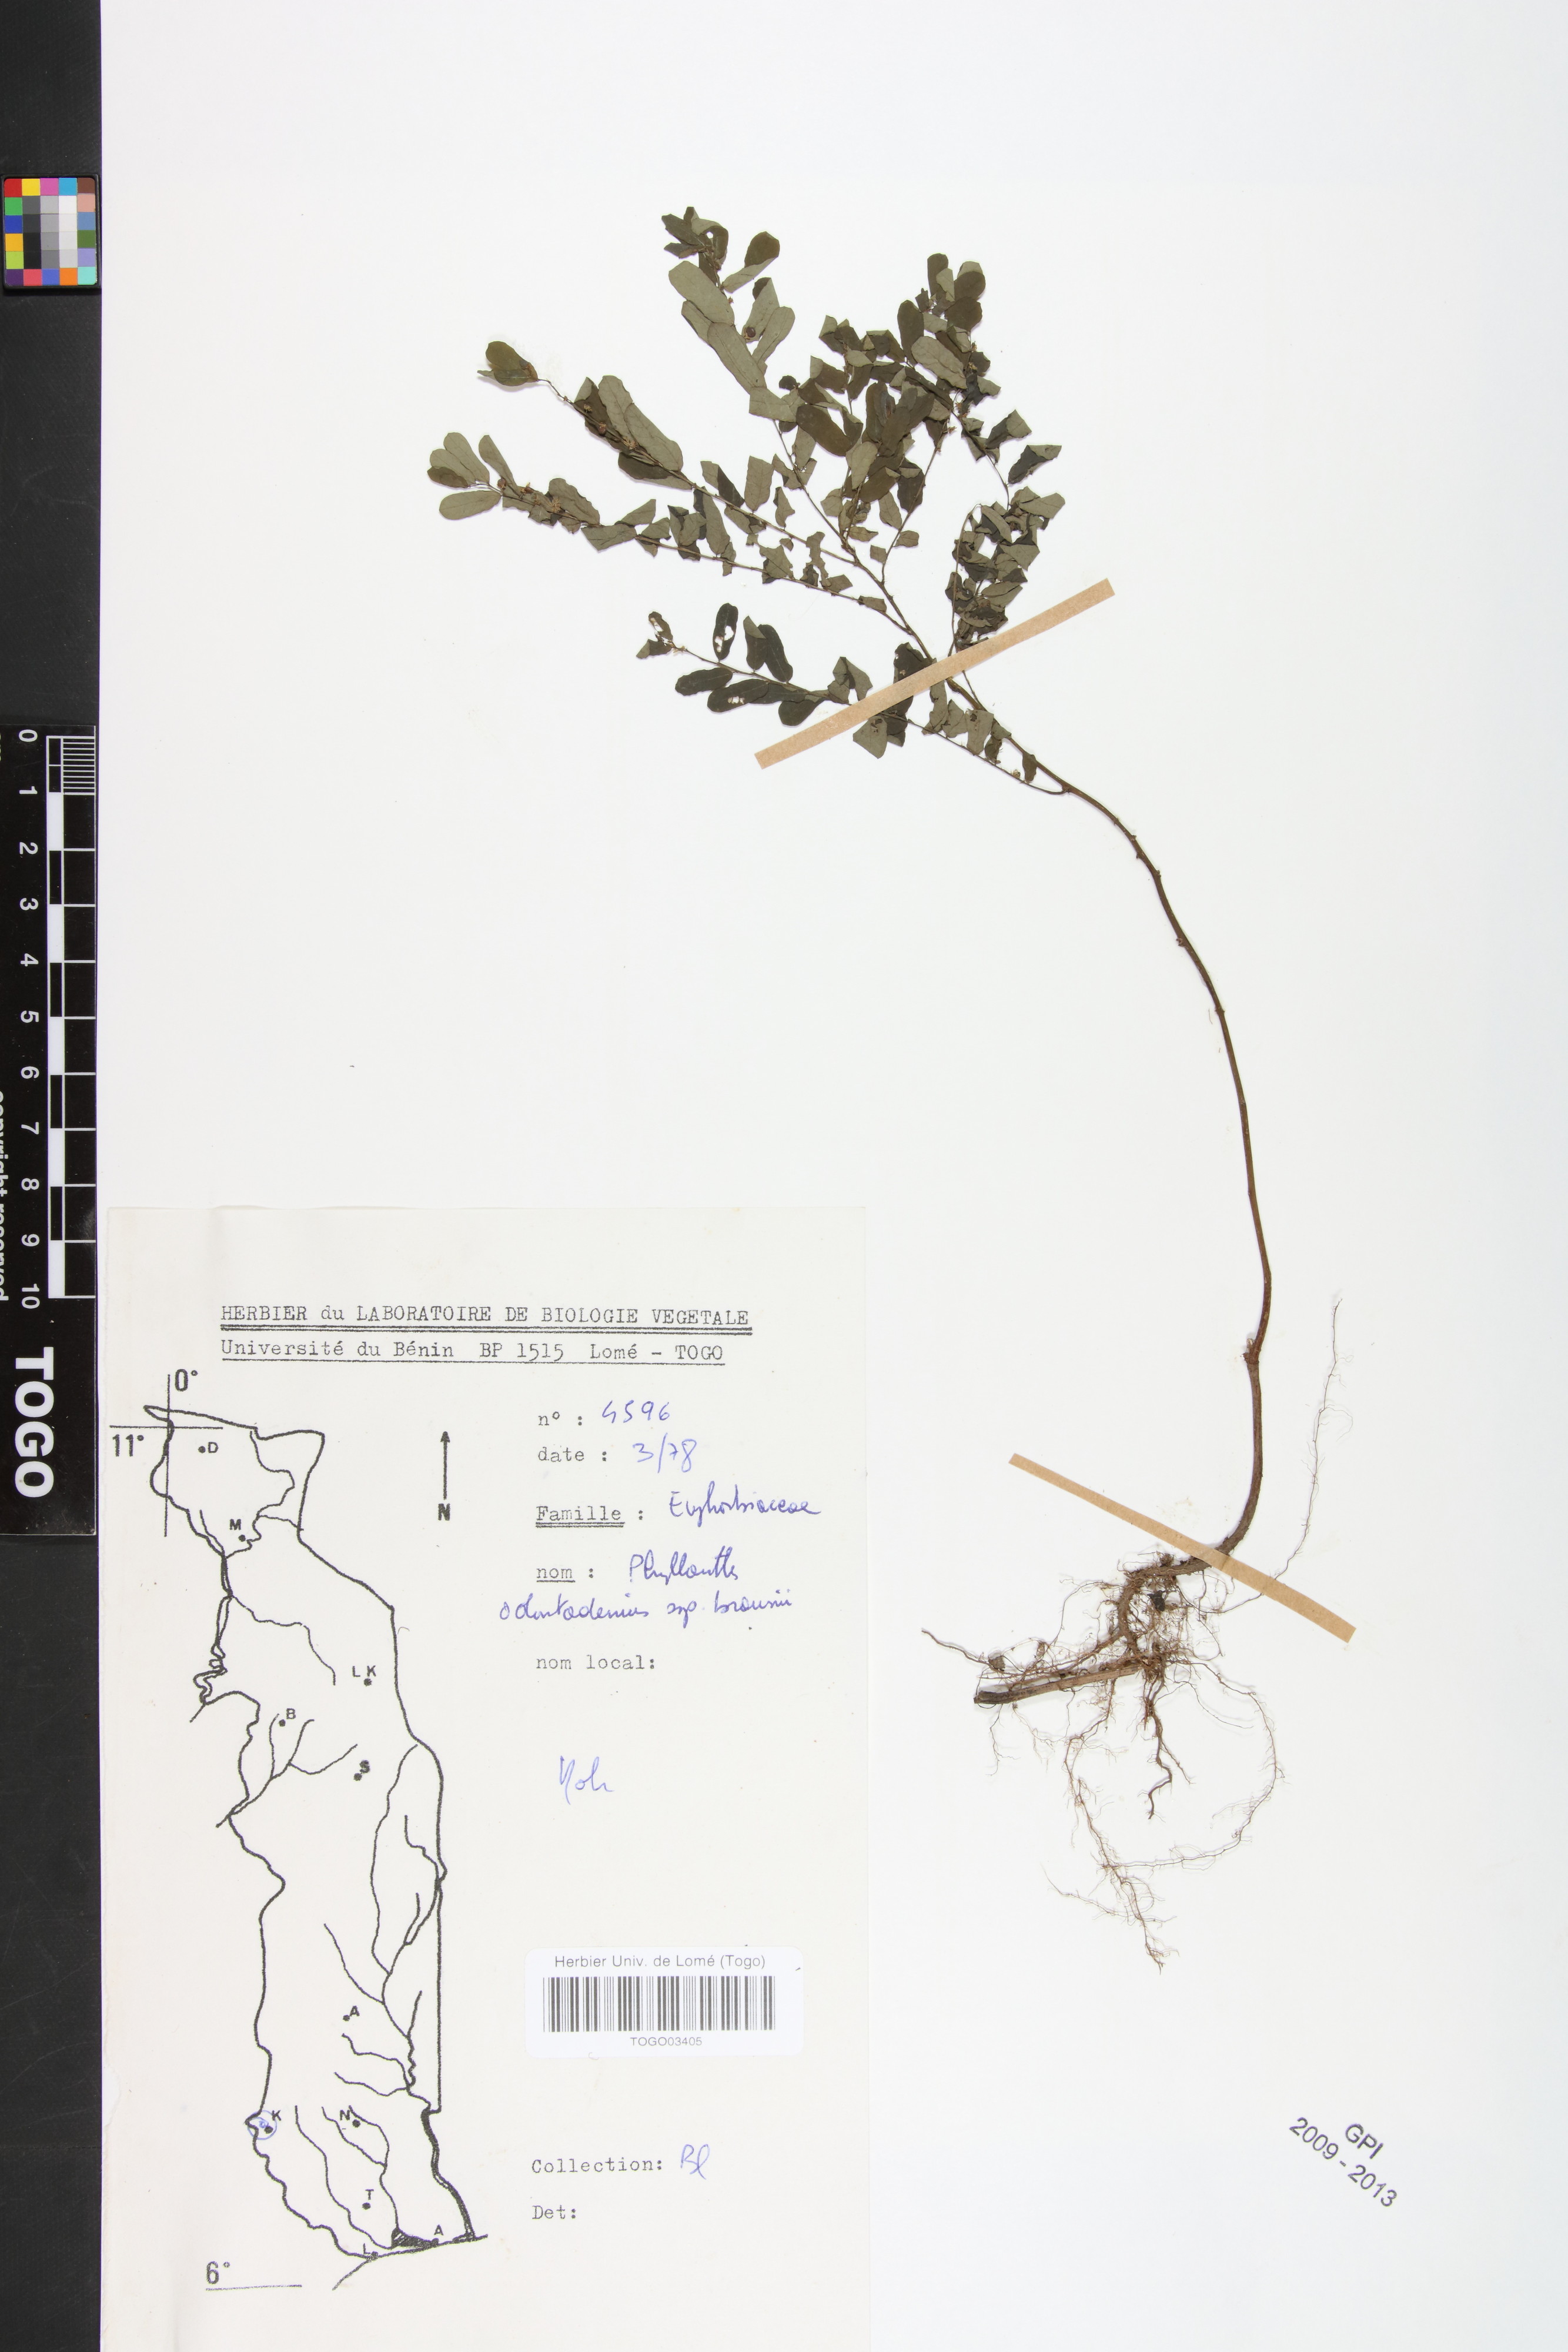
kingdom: Plantae
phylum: Tracheophyta
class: Magnoliopsida
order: Malpighiales
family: Phyllanthaceae
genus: Phyllanthus
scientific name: Phyllanthus odontadenius
